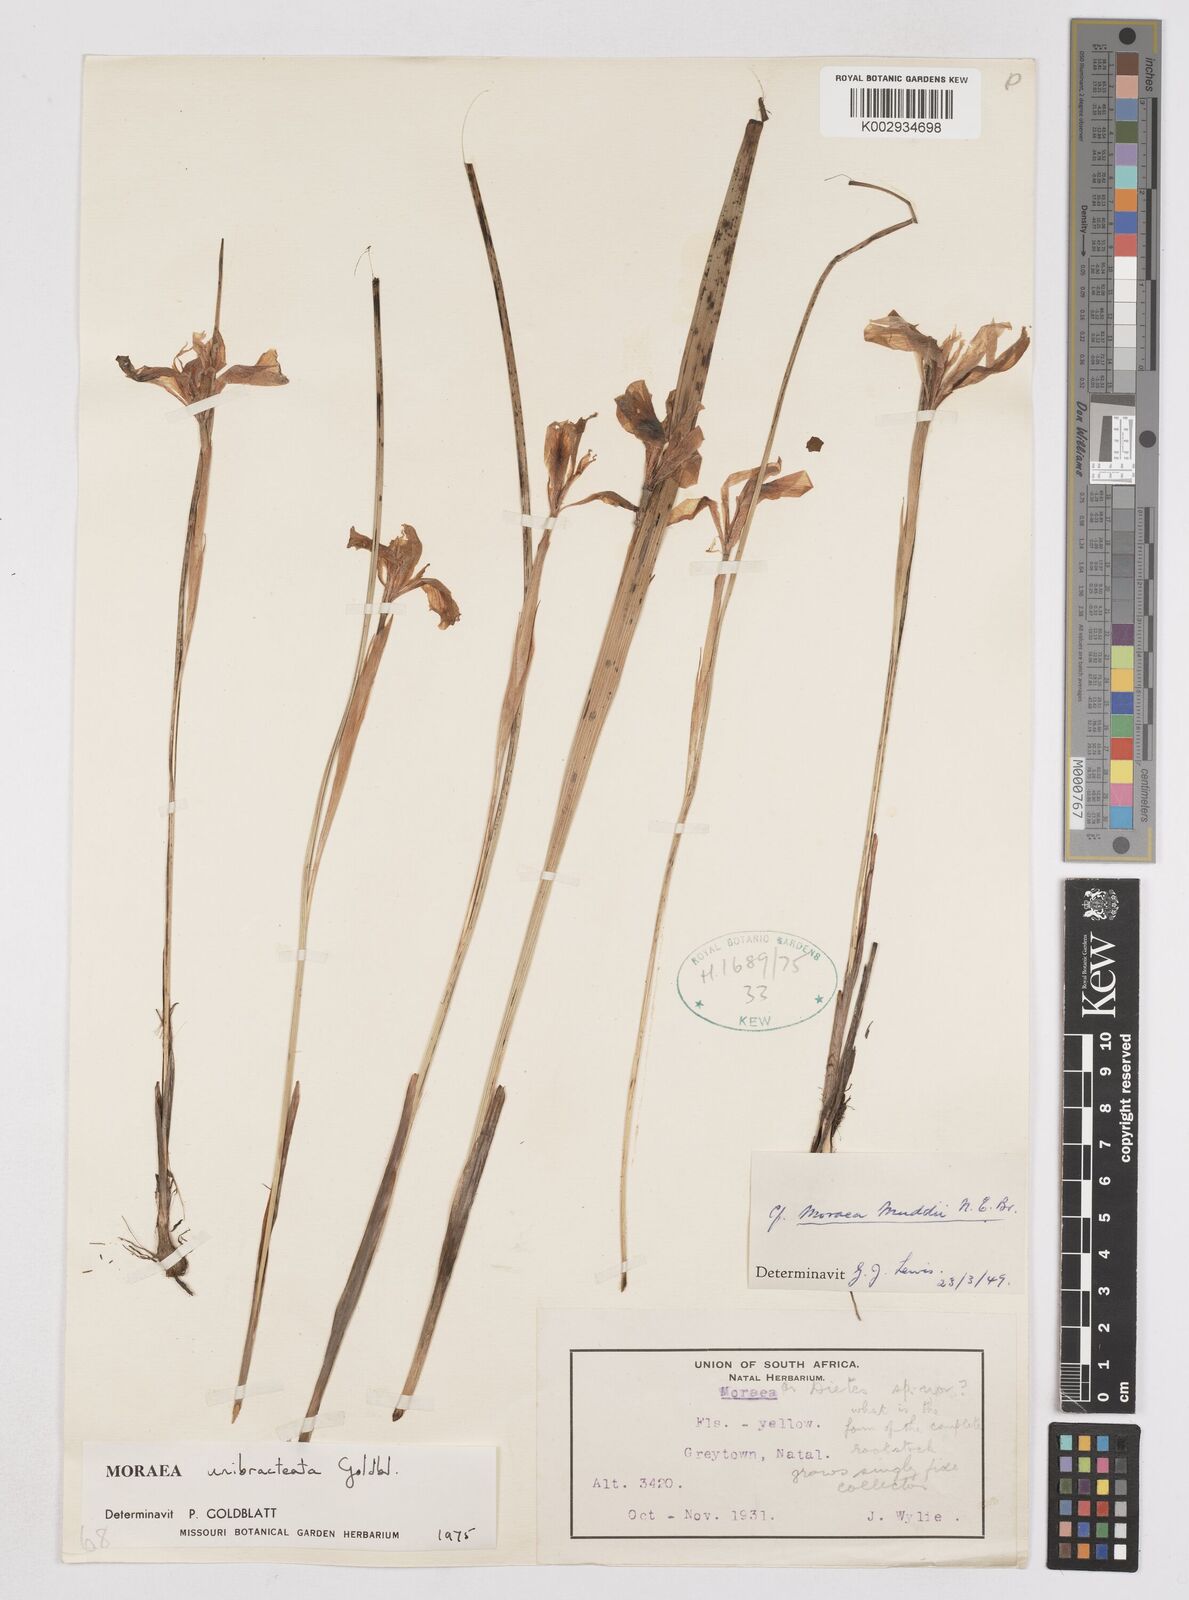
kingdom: Plantae
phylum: Tracheophyta
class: Liliopsida
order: Asparagales
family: Iridaceae
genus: Moraea
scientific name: Moraea unibracteata
